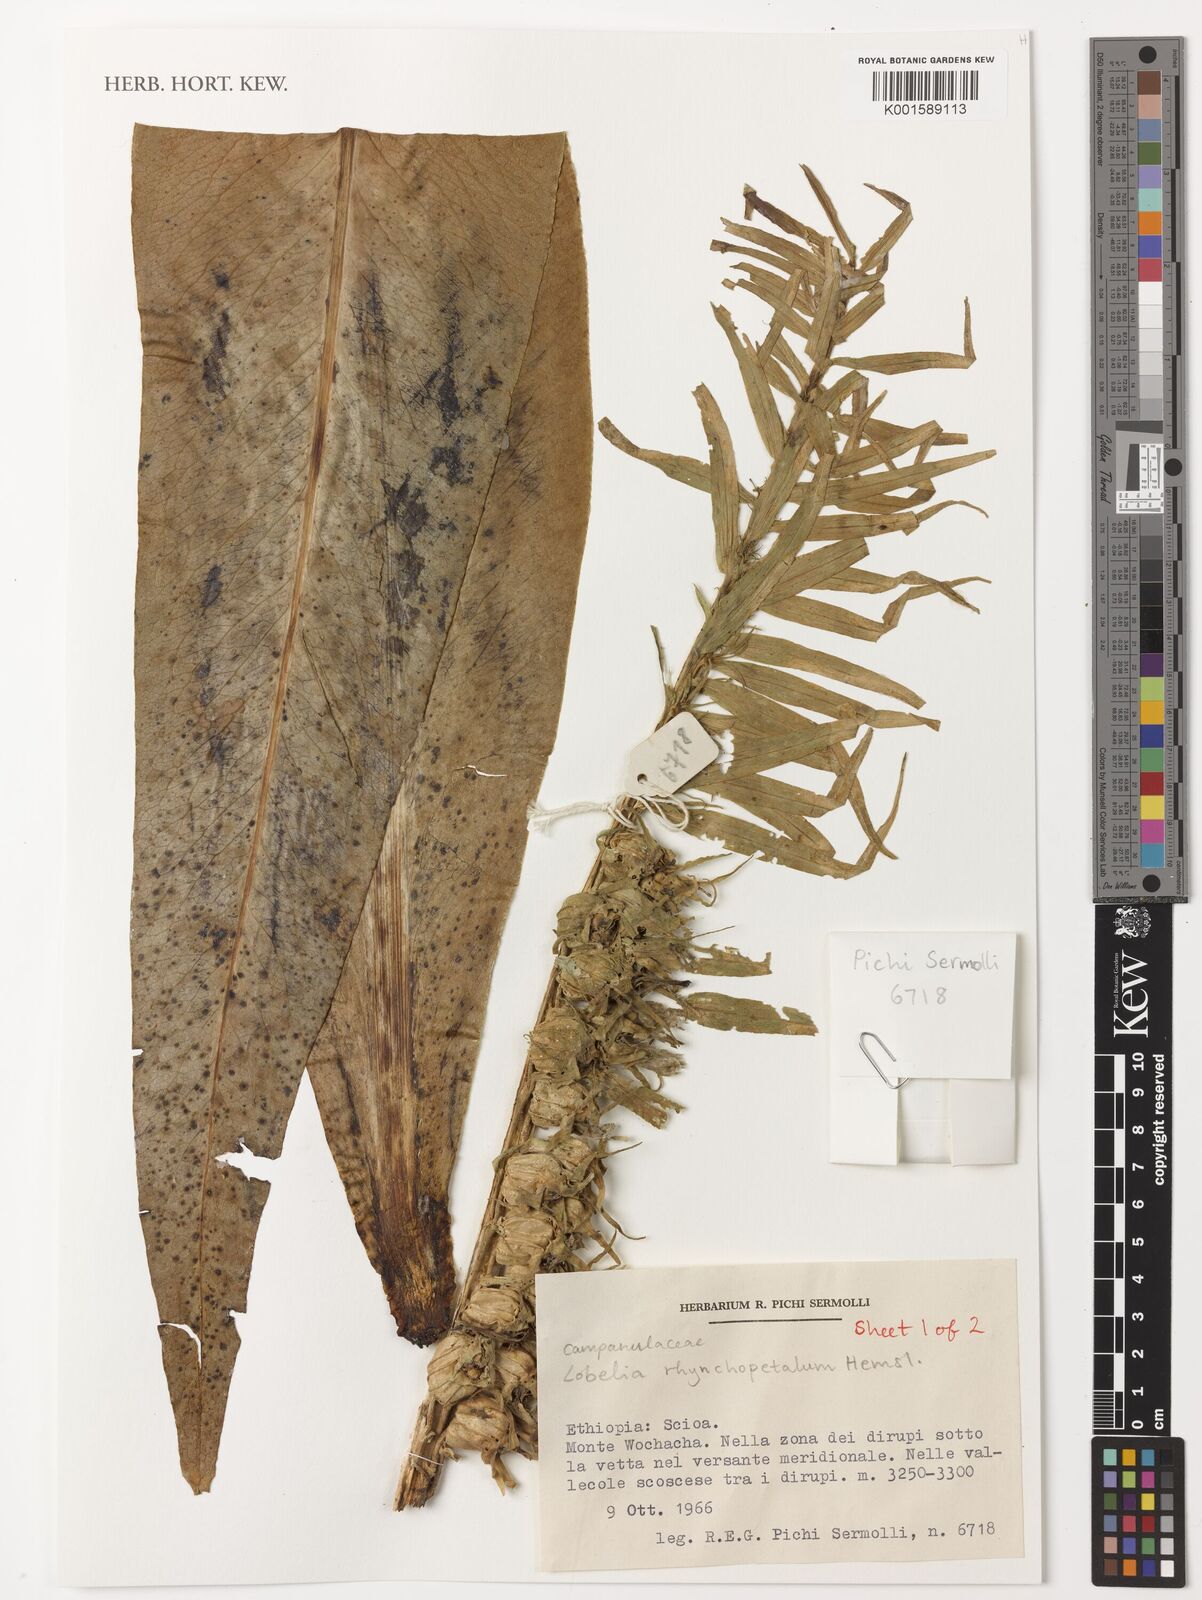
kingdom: Plantae
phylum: Tracheophyta
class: Magnoliopsida
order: Asterales
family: Campanulaceae
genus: Lobelia
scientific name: Lobelia rhynchopetalum
